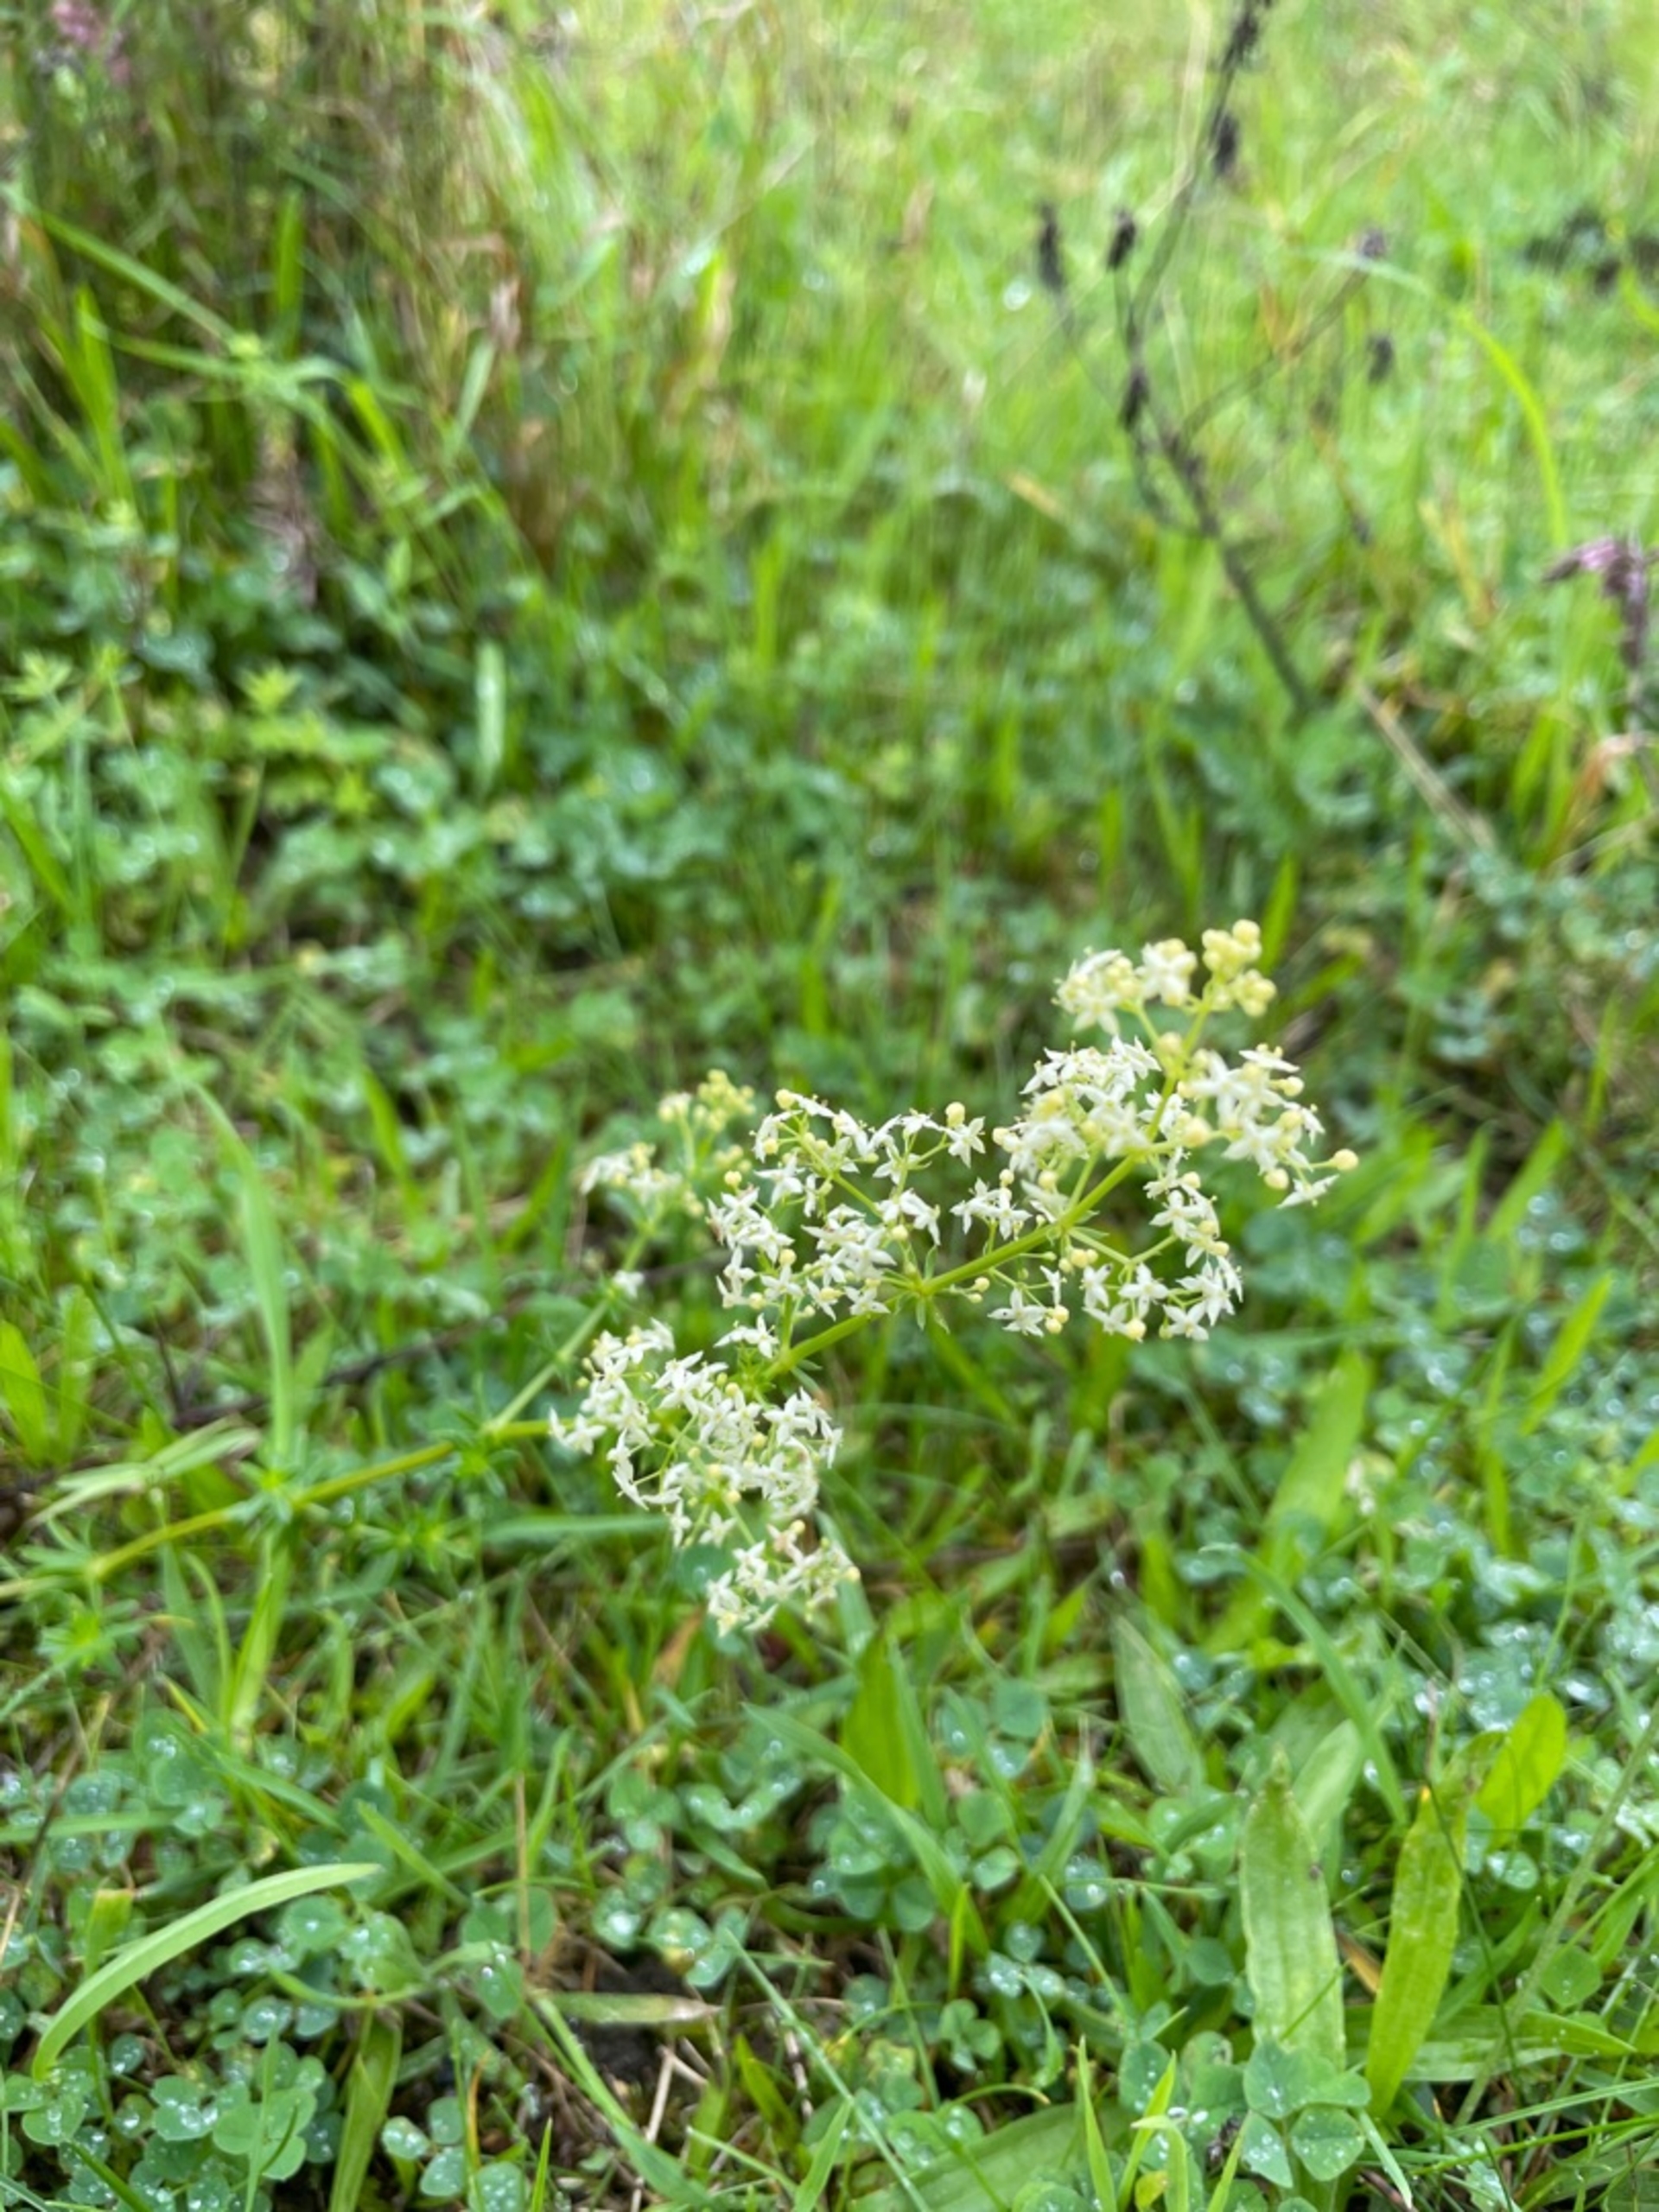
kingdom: Plantae
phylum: Tracheophyta
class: Magnoliopsida
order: Gentianales
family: Rubiaceae
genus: Galium
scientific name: Galium mollugo
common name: Hvid snerre
